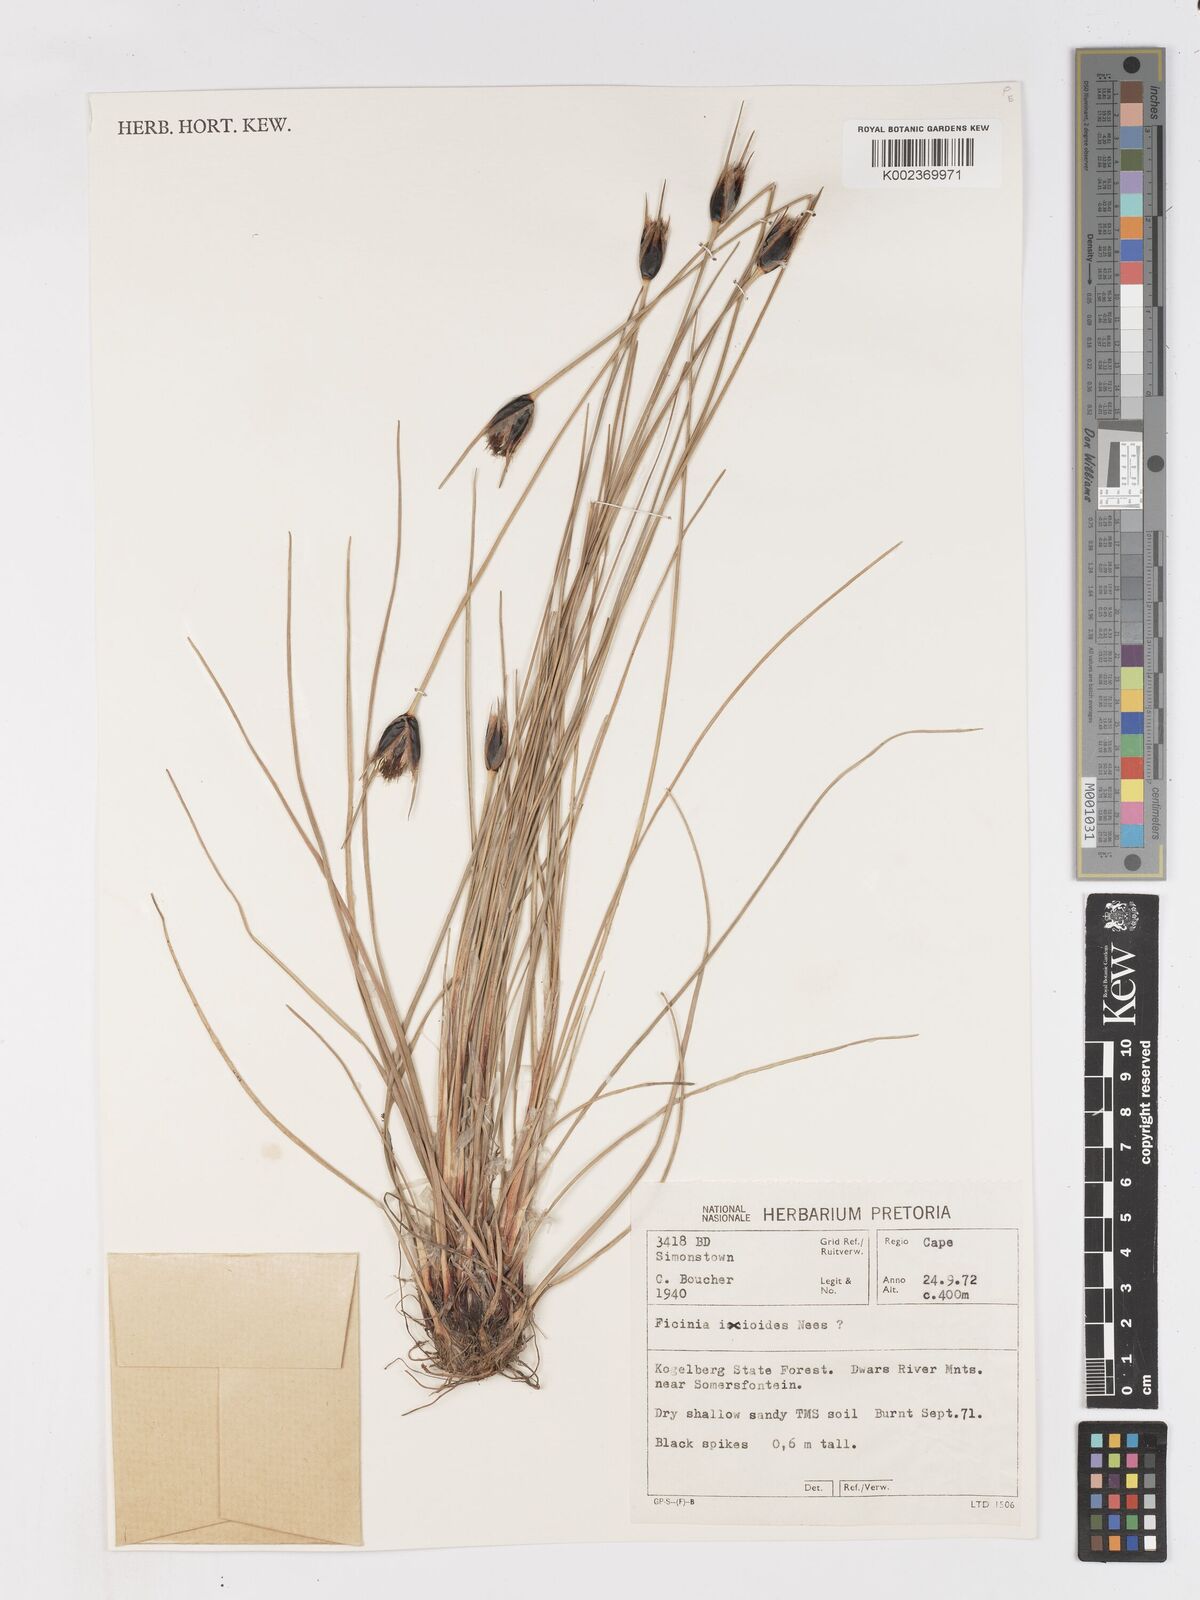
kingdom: Plantae
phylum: Tracheophyta
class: Liliopsida
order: Poales
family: Cyperaceae
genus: Ficinia
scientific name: Ficinia ixioides
